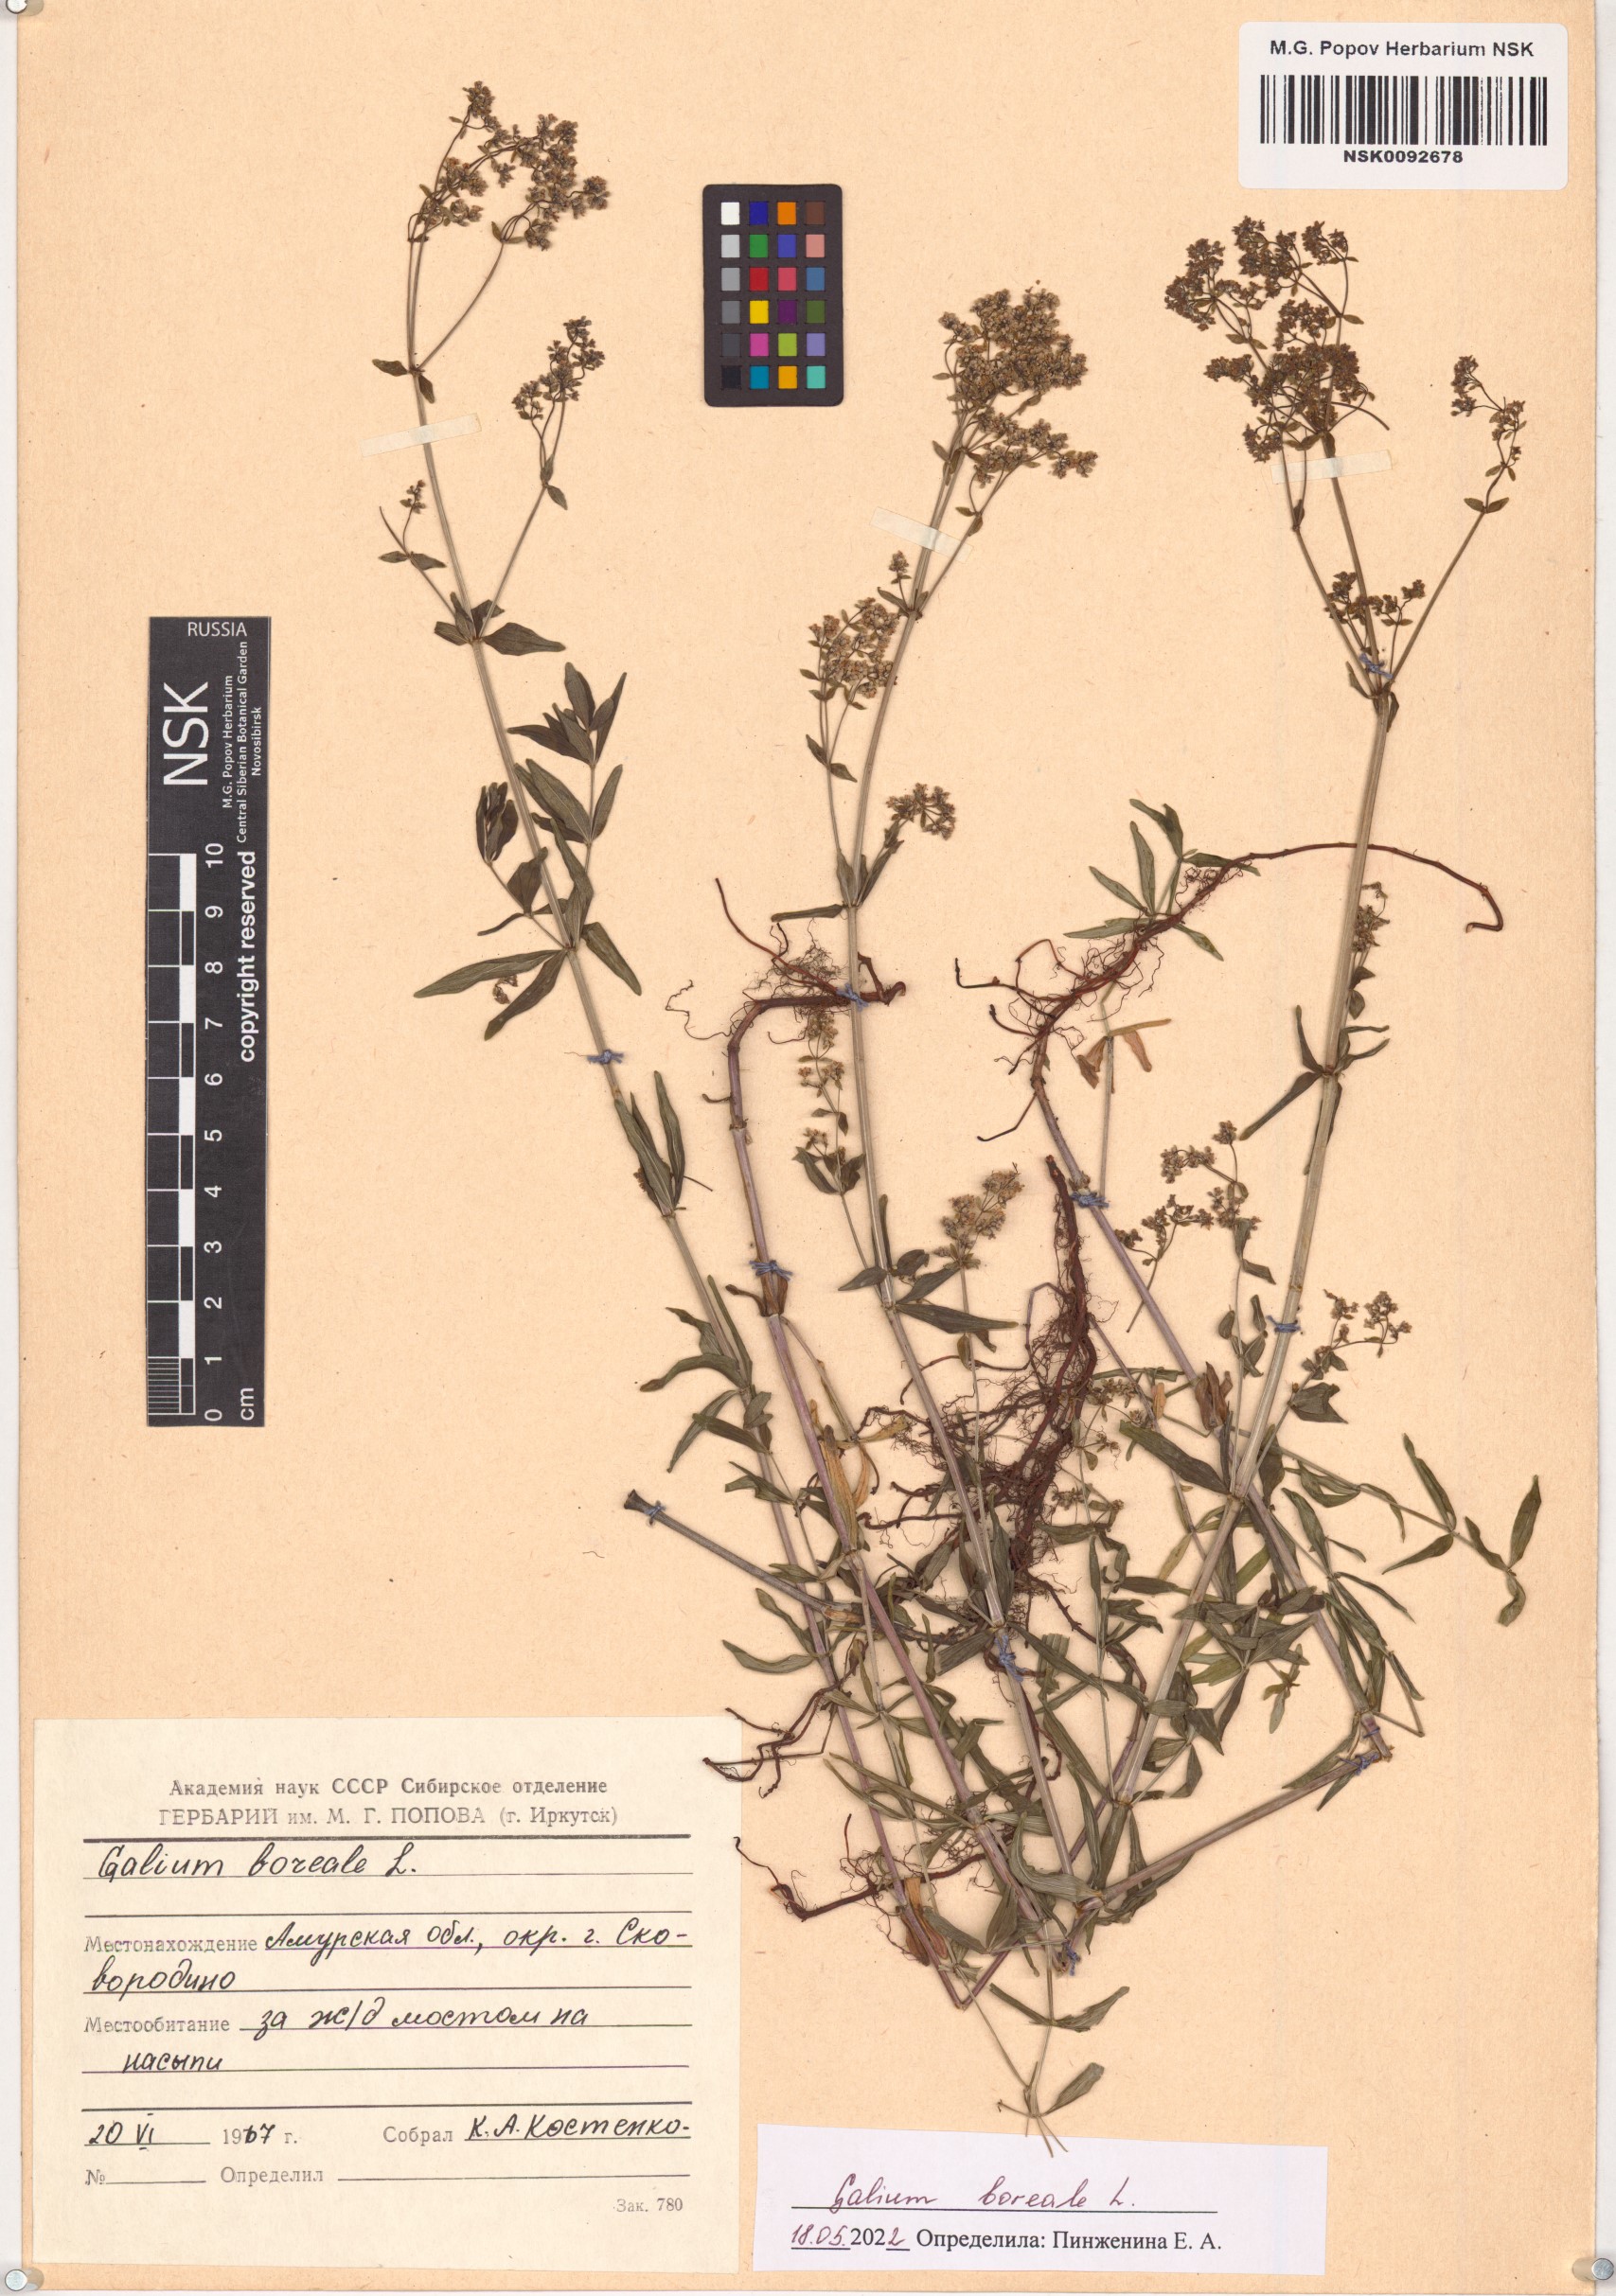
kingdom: Plantae
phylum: Tracheophyta
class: Magnoliopsida
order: Gentianales
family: Rubiaceae
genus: Galium
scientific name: Galium boreale
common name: Northern bedstraw
